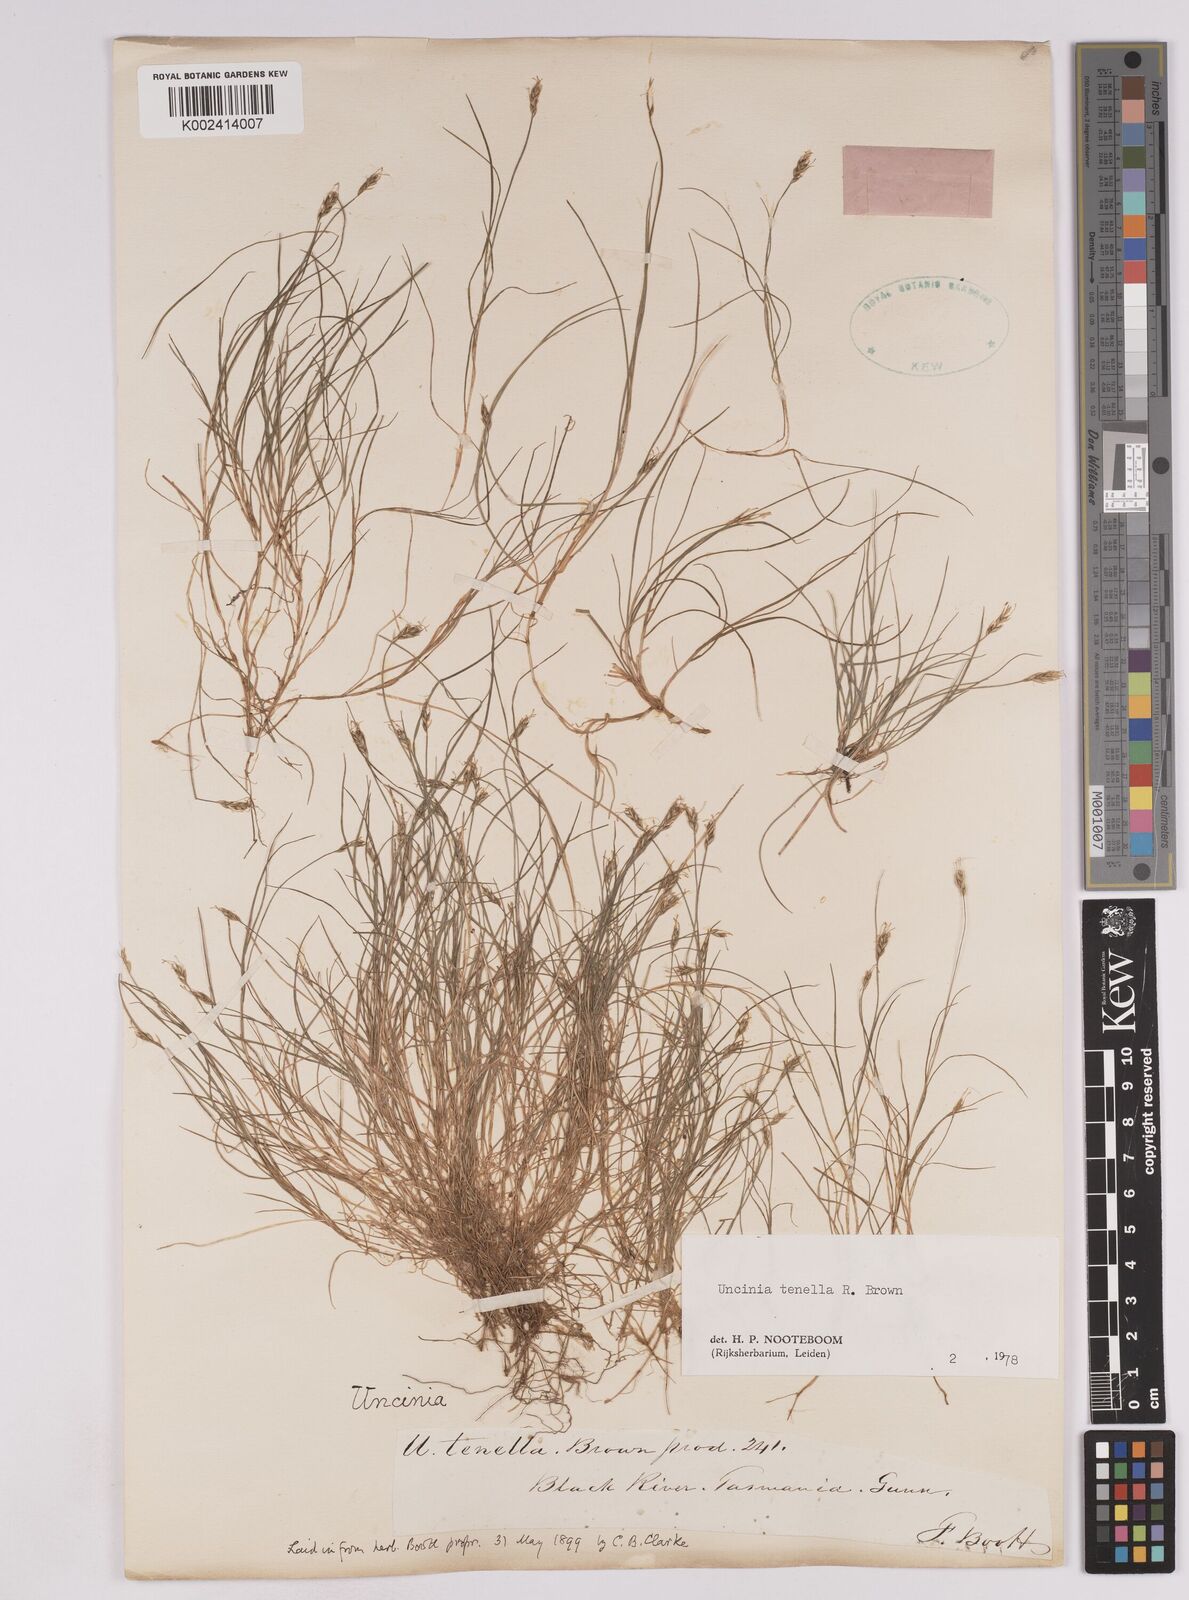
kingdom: Plantae
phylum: Tracheophyta
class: Liliopsida
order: Poales
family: Cyperaceae
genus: Carex
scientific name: Carex austrotenella
